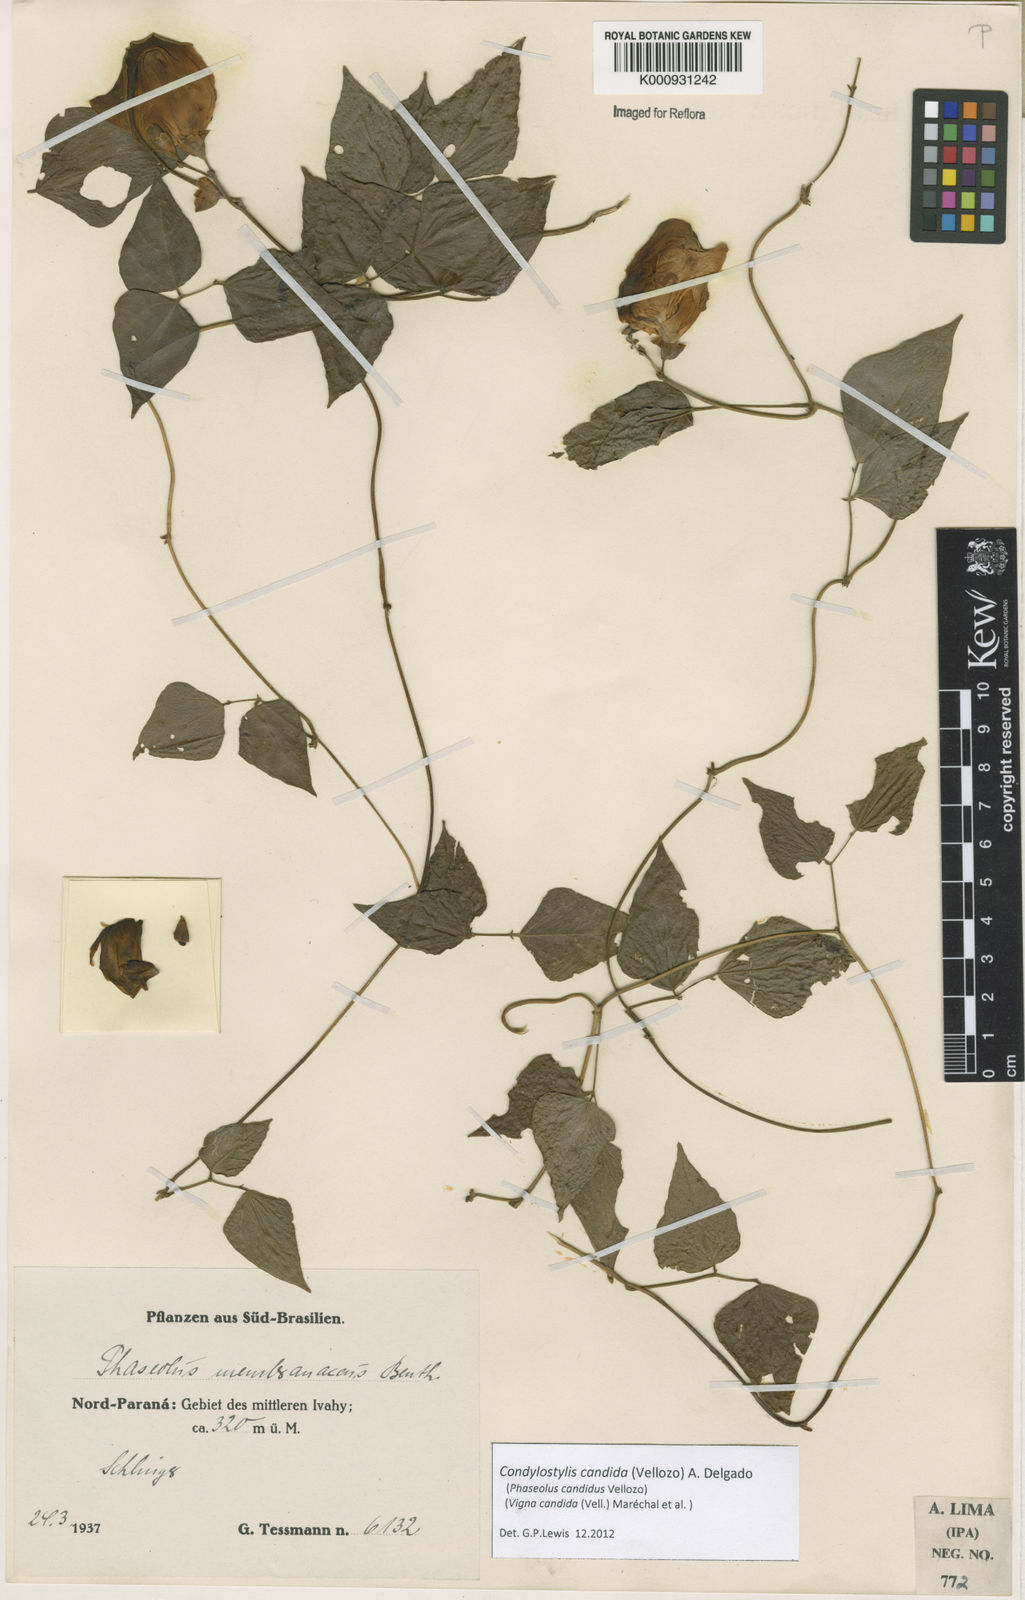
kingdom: Plantae
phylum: Tracheophyta
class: Magnoliopsida
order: Fabales
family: Fabaceae
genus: Condylostylis
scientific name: Condylostylis candida
